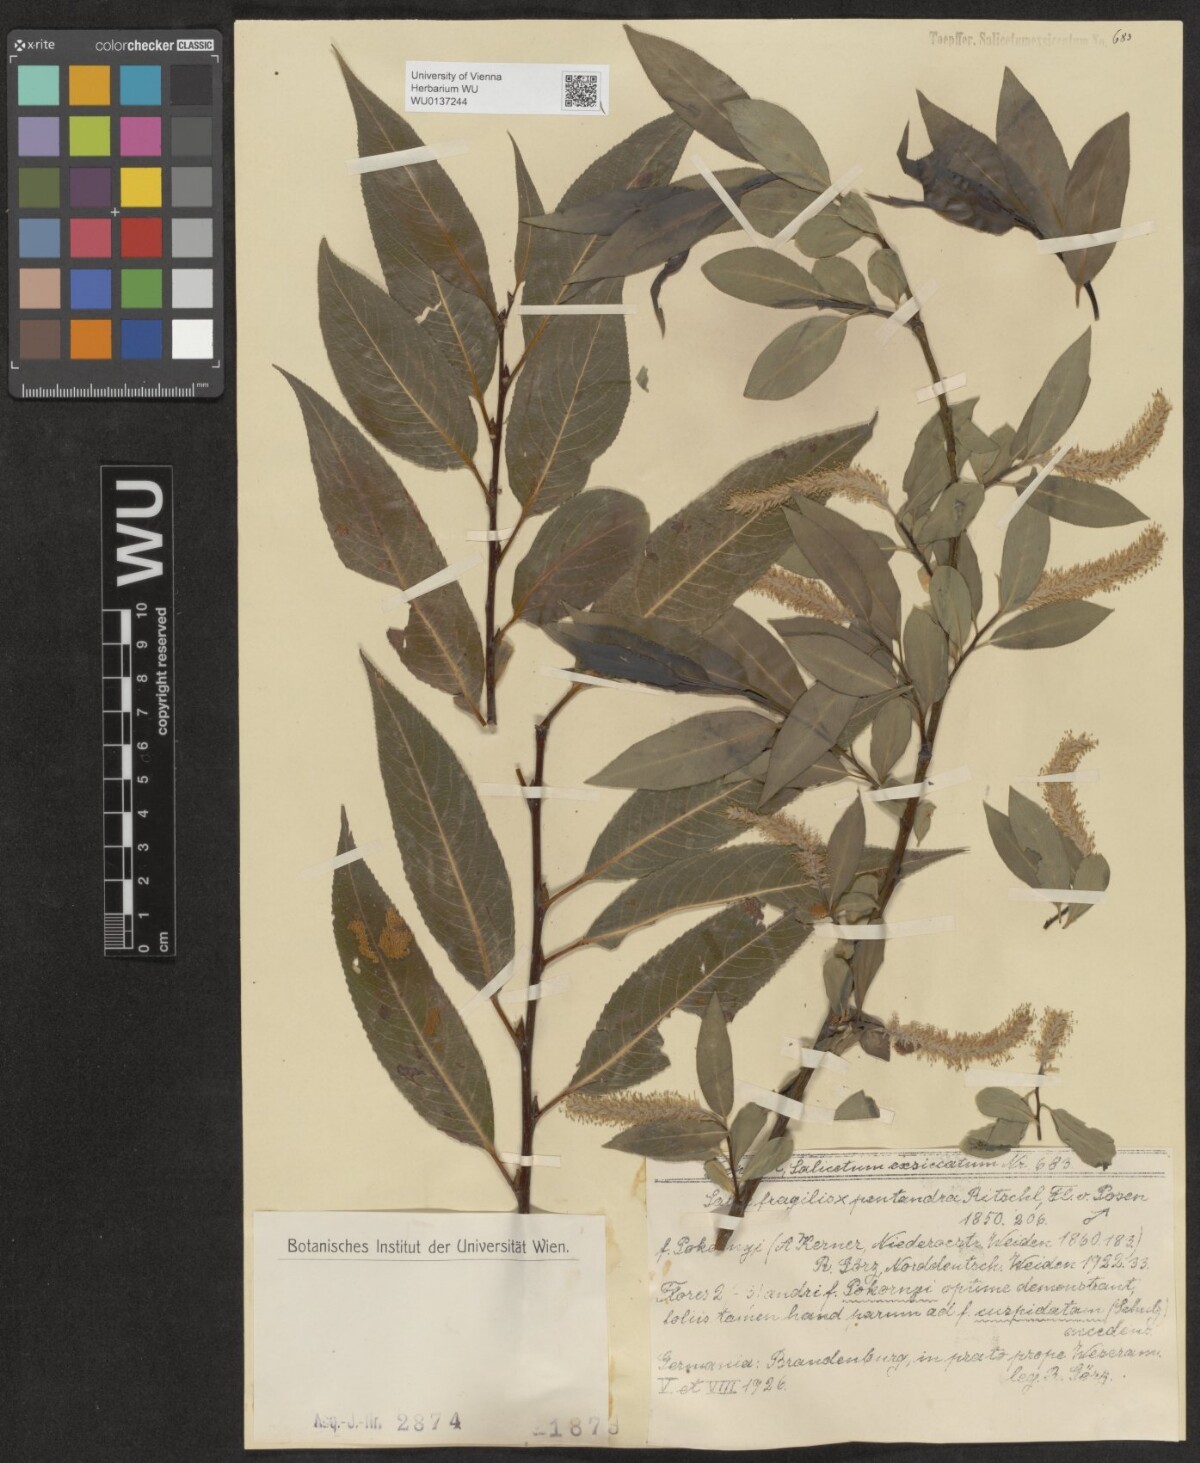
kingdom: Plantae
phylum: Tracheophyta
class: Magnoliopsida
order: Malpighiales
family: Salicaceae
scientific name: Salicaceae
